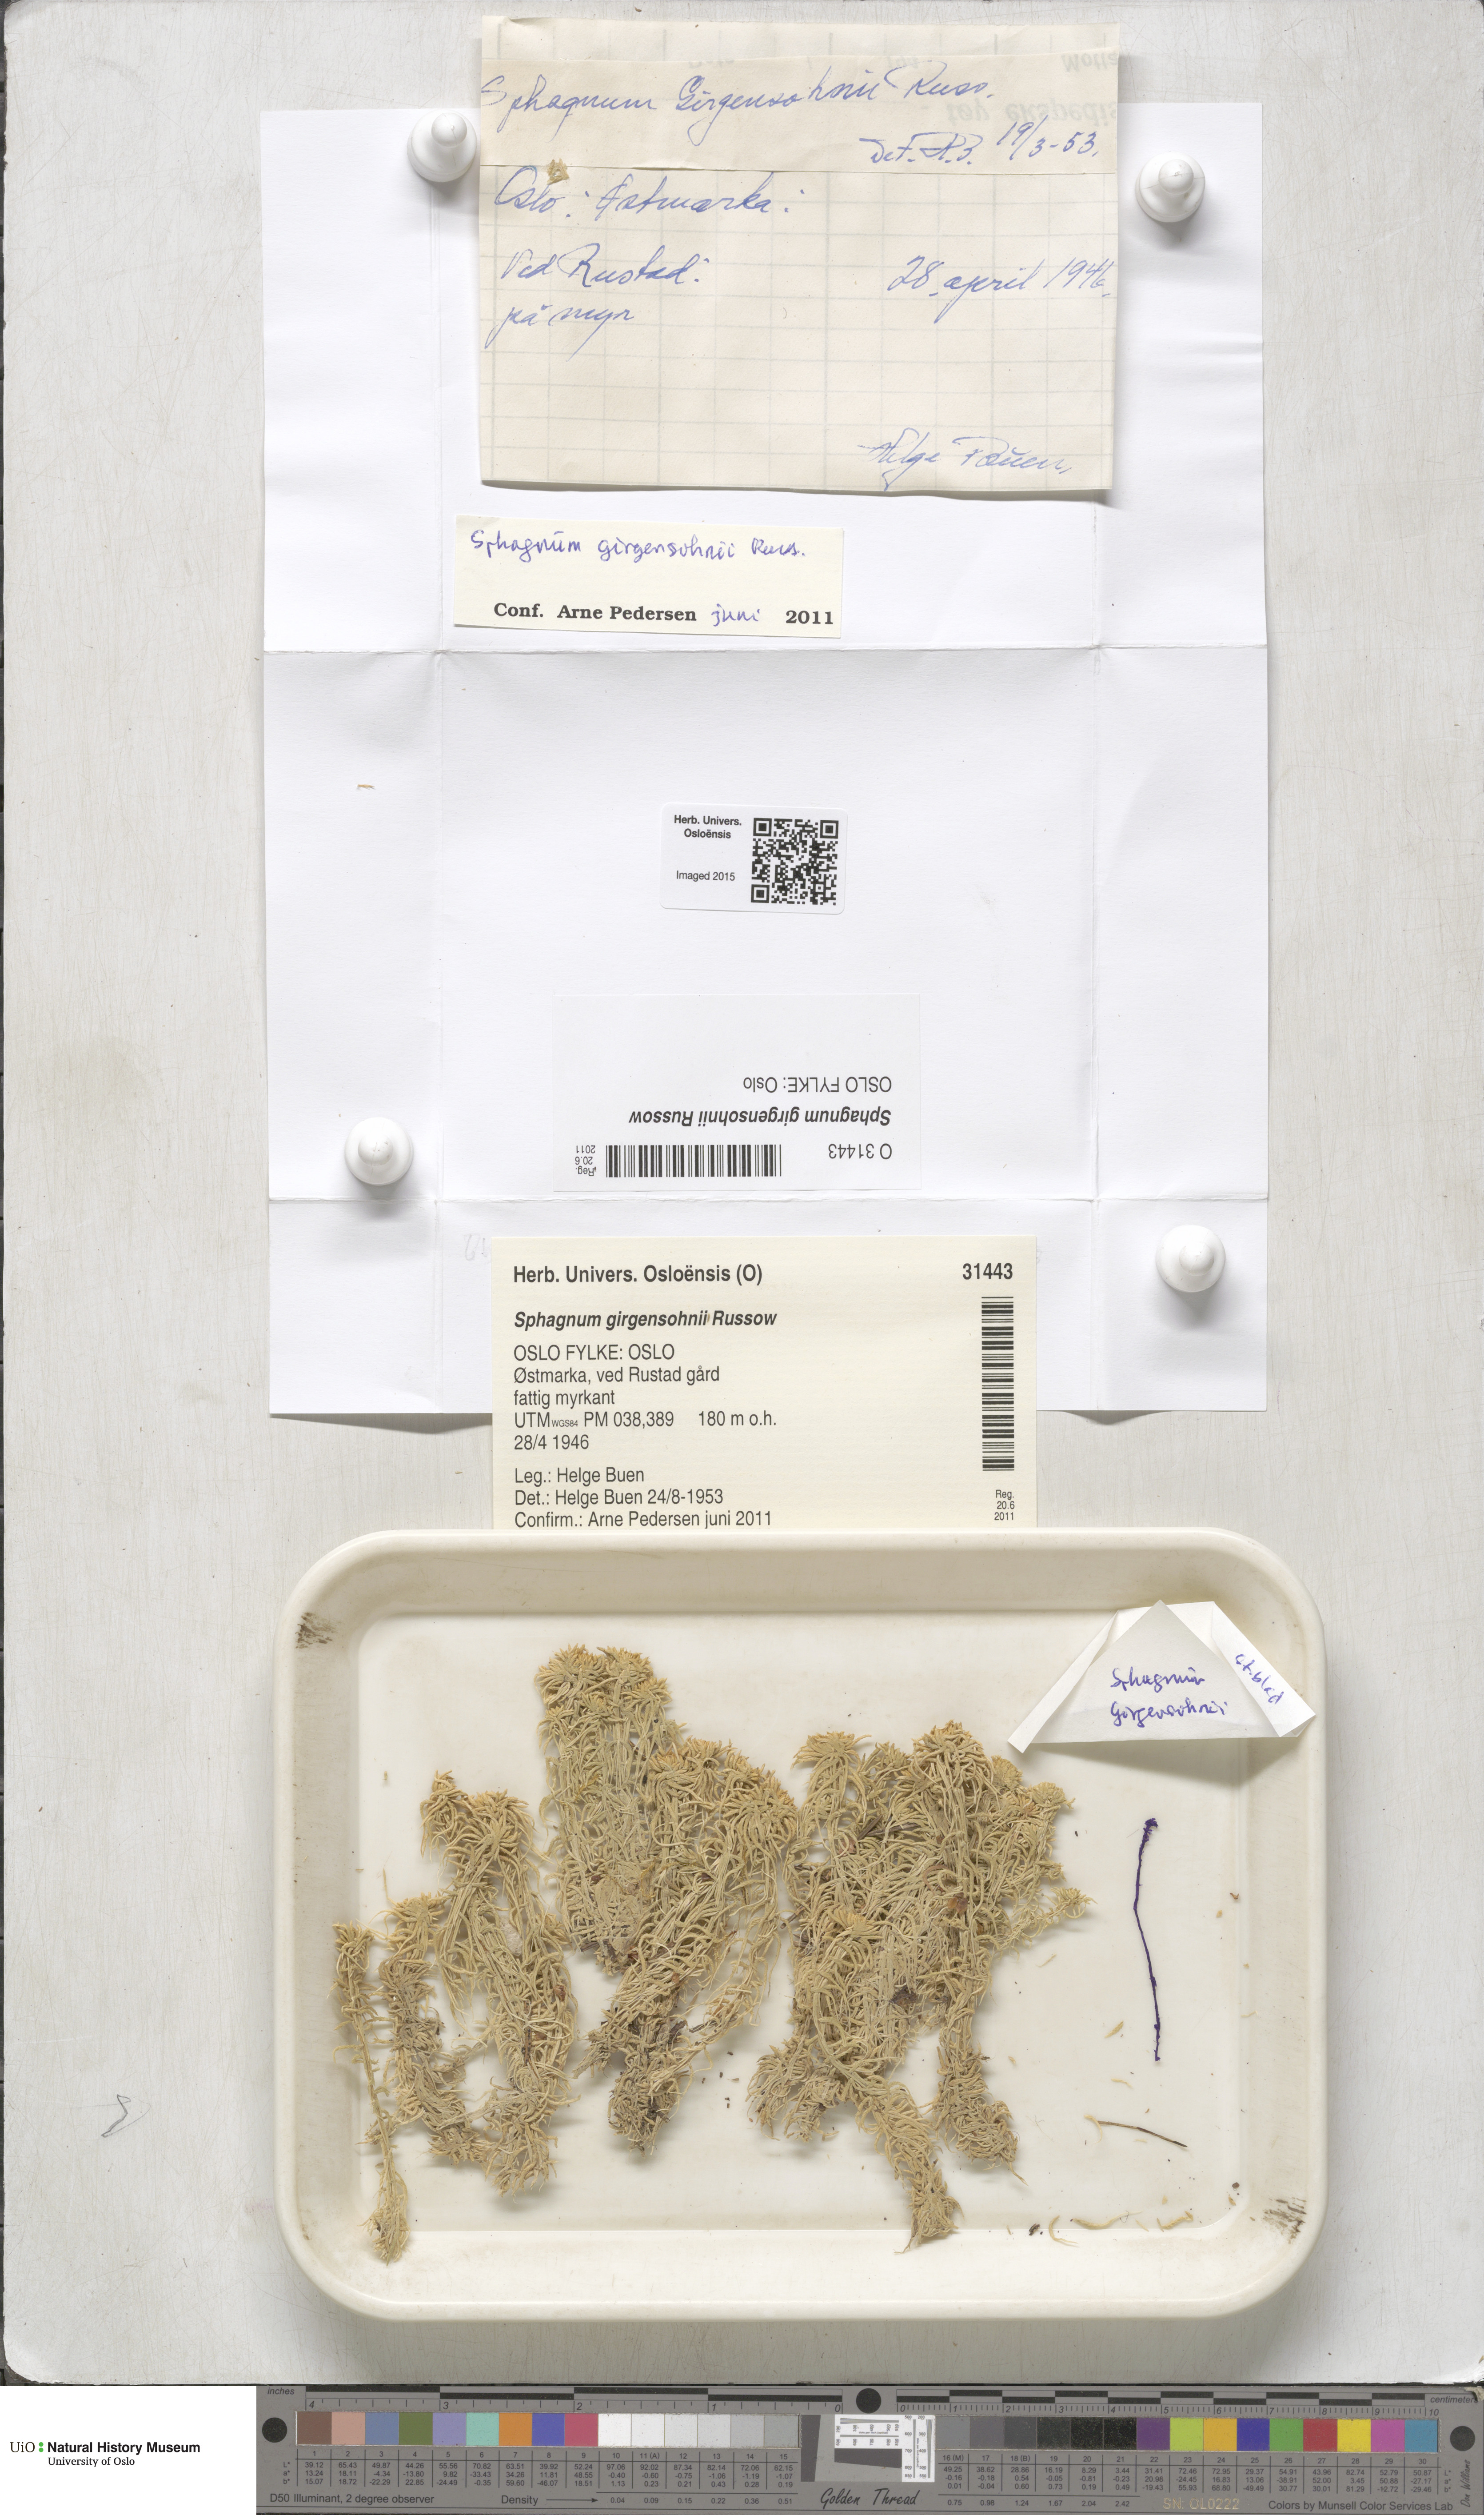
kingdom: Plantae
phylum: Bryophyta
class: Sphagnopsida
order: Sphagnales
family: Sphagnaceae
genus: Sphagnum
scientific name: Sphagnum girgensohnii
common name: Girgensohn's peat moss
